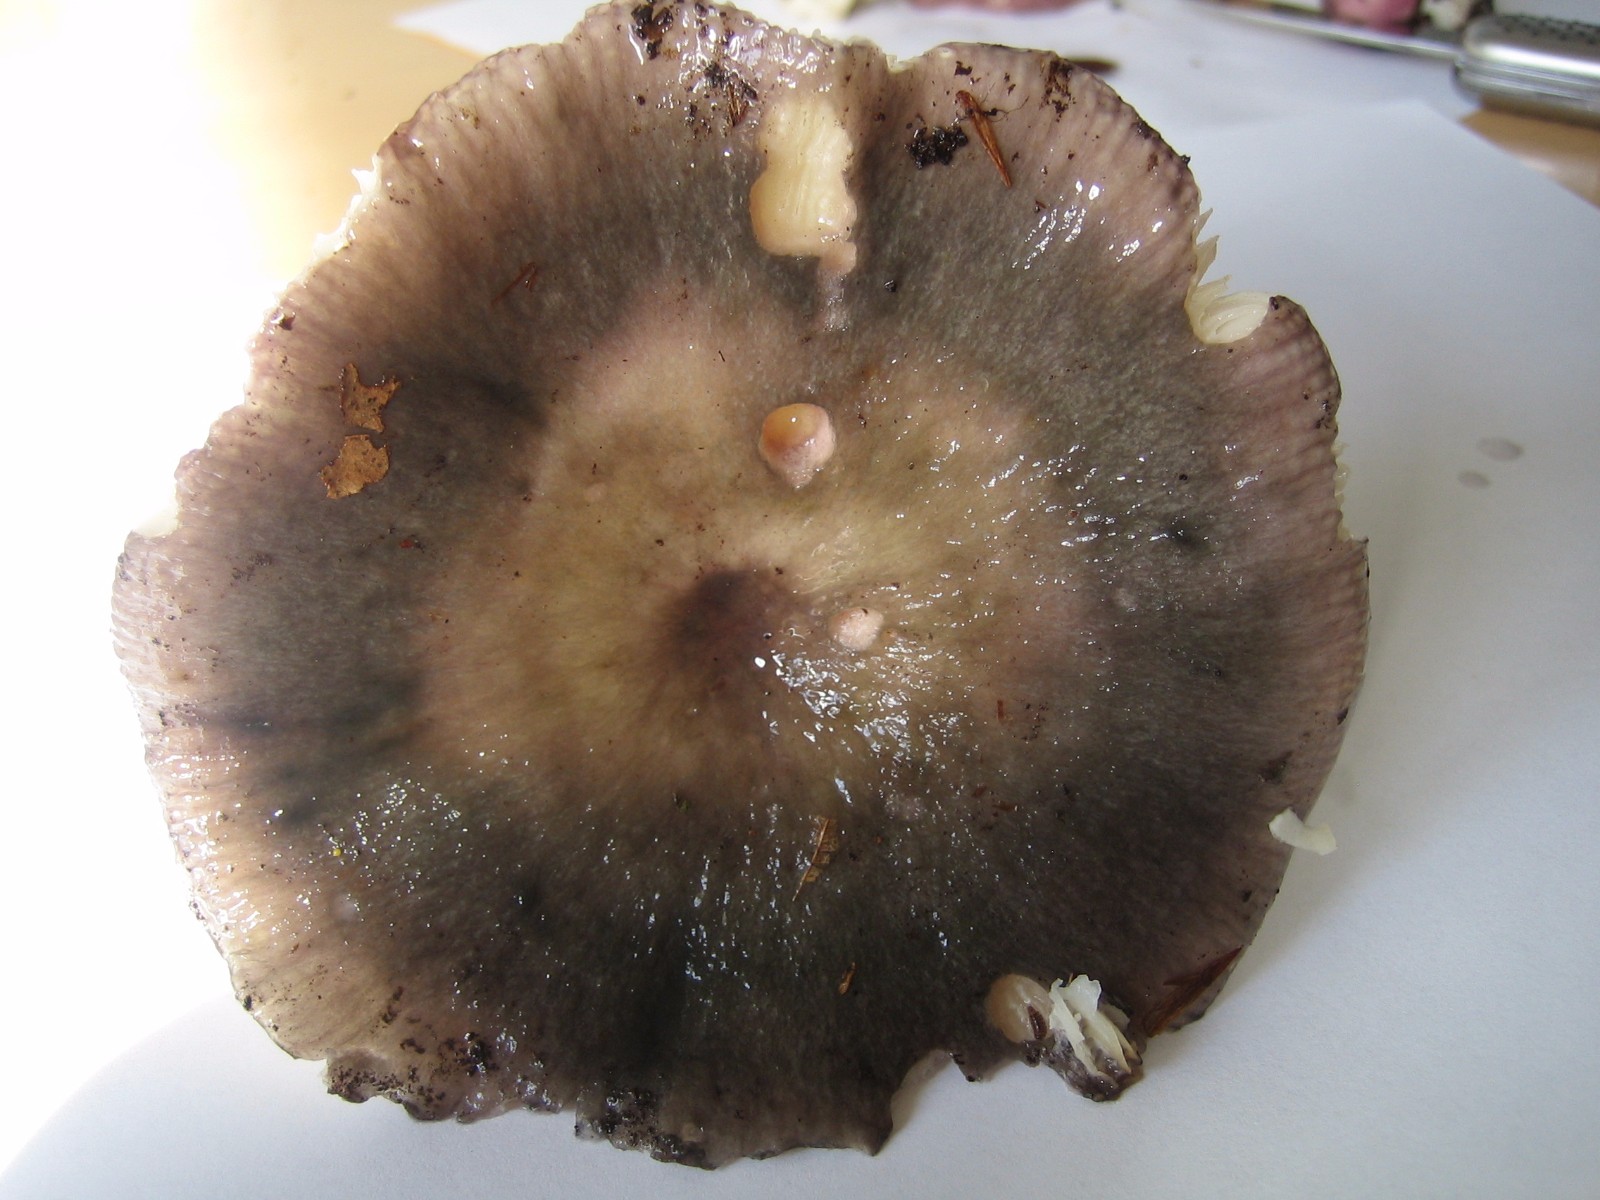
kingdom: Fungi
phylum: Basidiomycota
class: Agaricomycetes
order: Russulales
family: Russulaceae
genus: Russula
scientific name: Russula cyanoxantha
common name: broget skørhat
